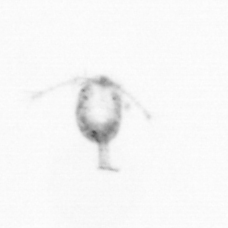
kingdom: Animalia
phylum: Arthropoda
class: Copepoda
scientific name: Copepoda
